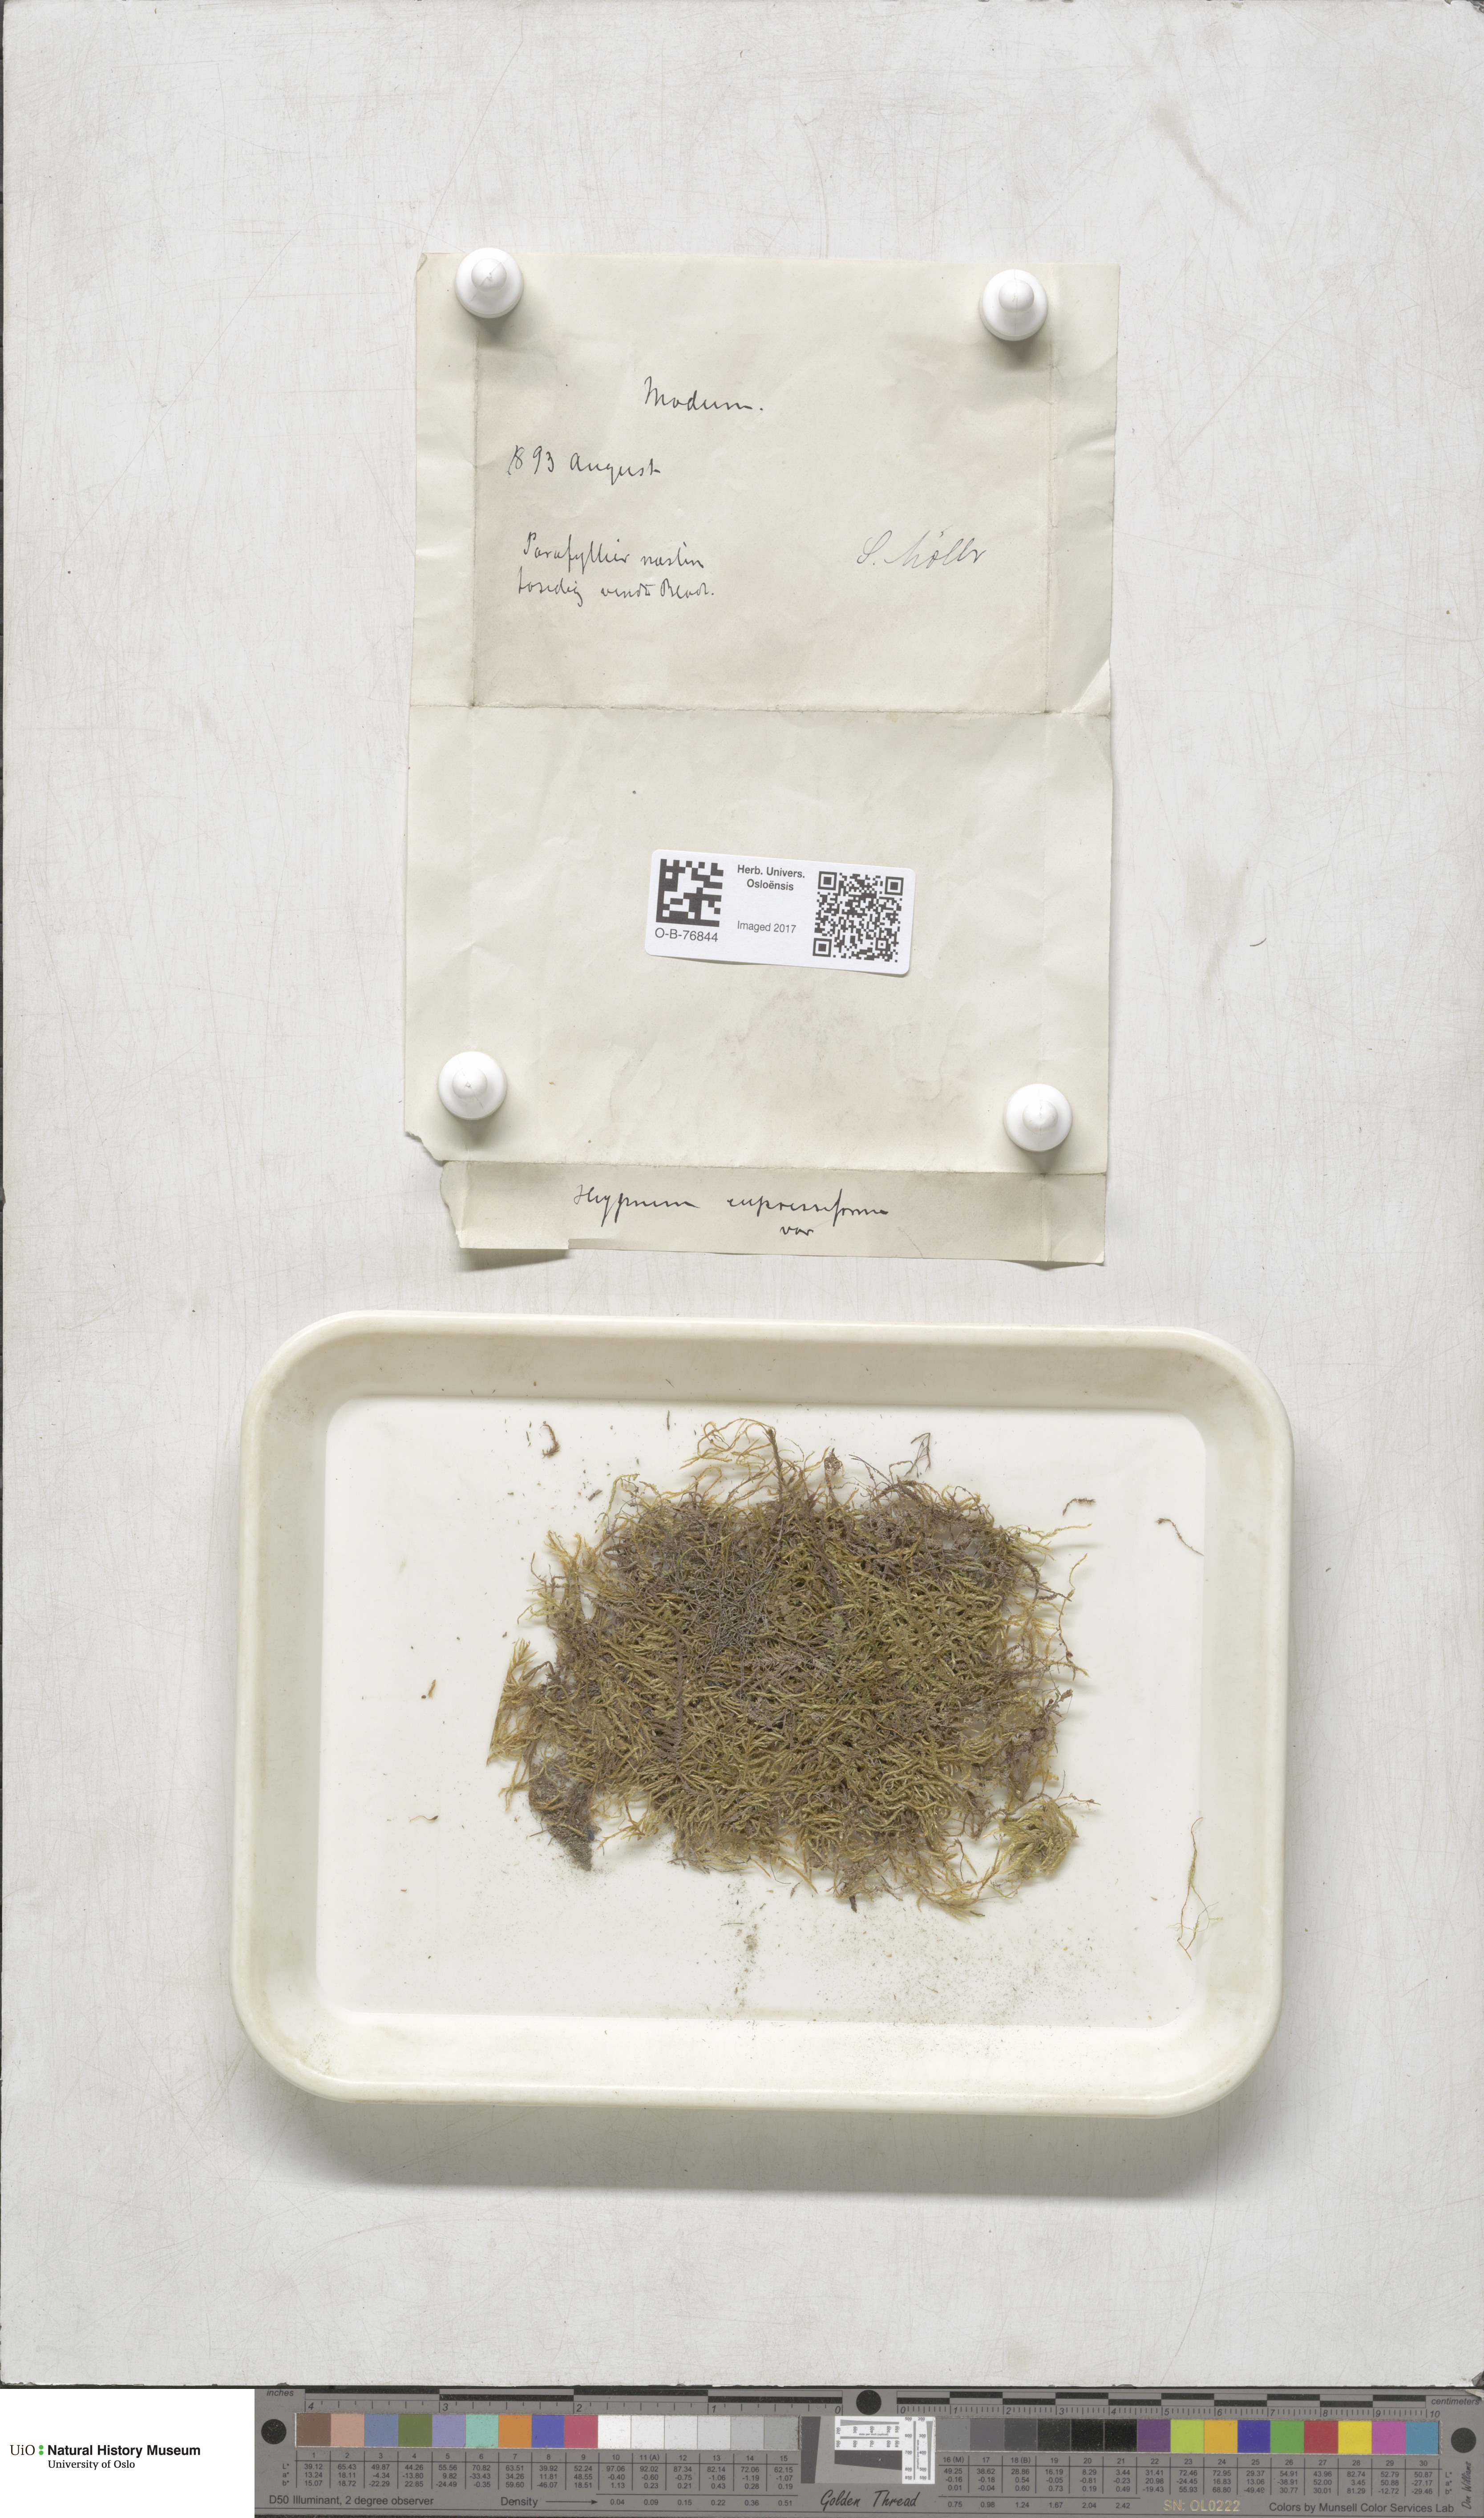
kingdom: Plantae
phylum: Bryophyta
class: Bryopsida
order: Hypnales
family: Hypnaceae
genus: Hypnum
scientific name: Hypnum cupressiforme
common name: Cypress-leaved plait-moss
